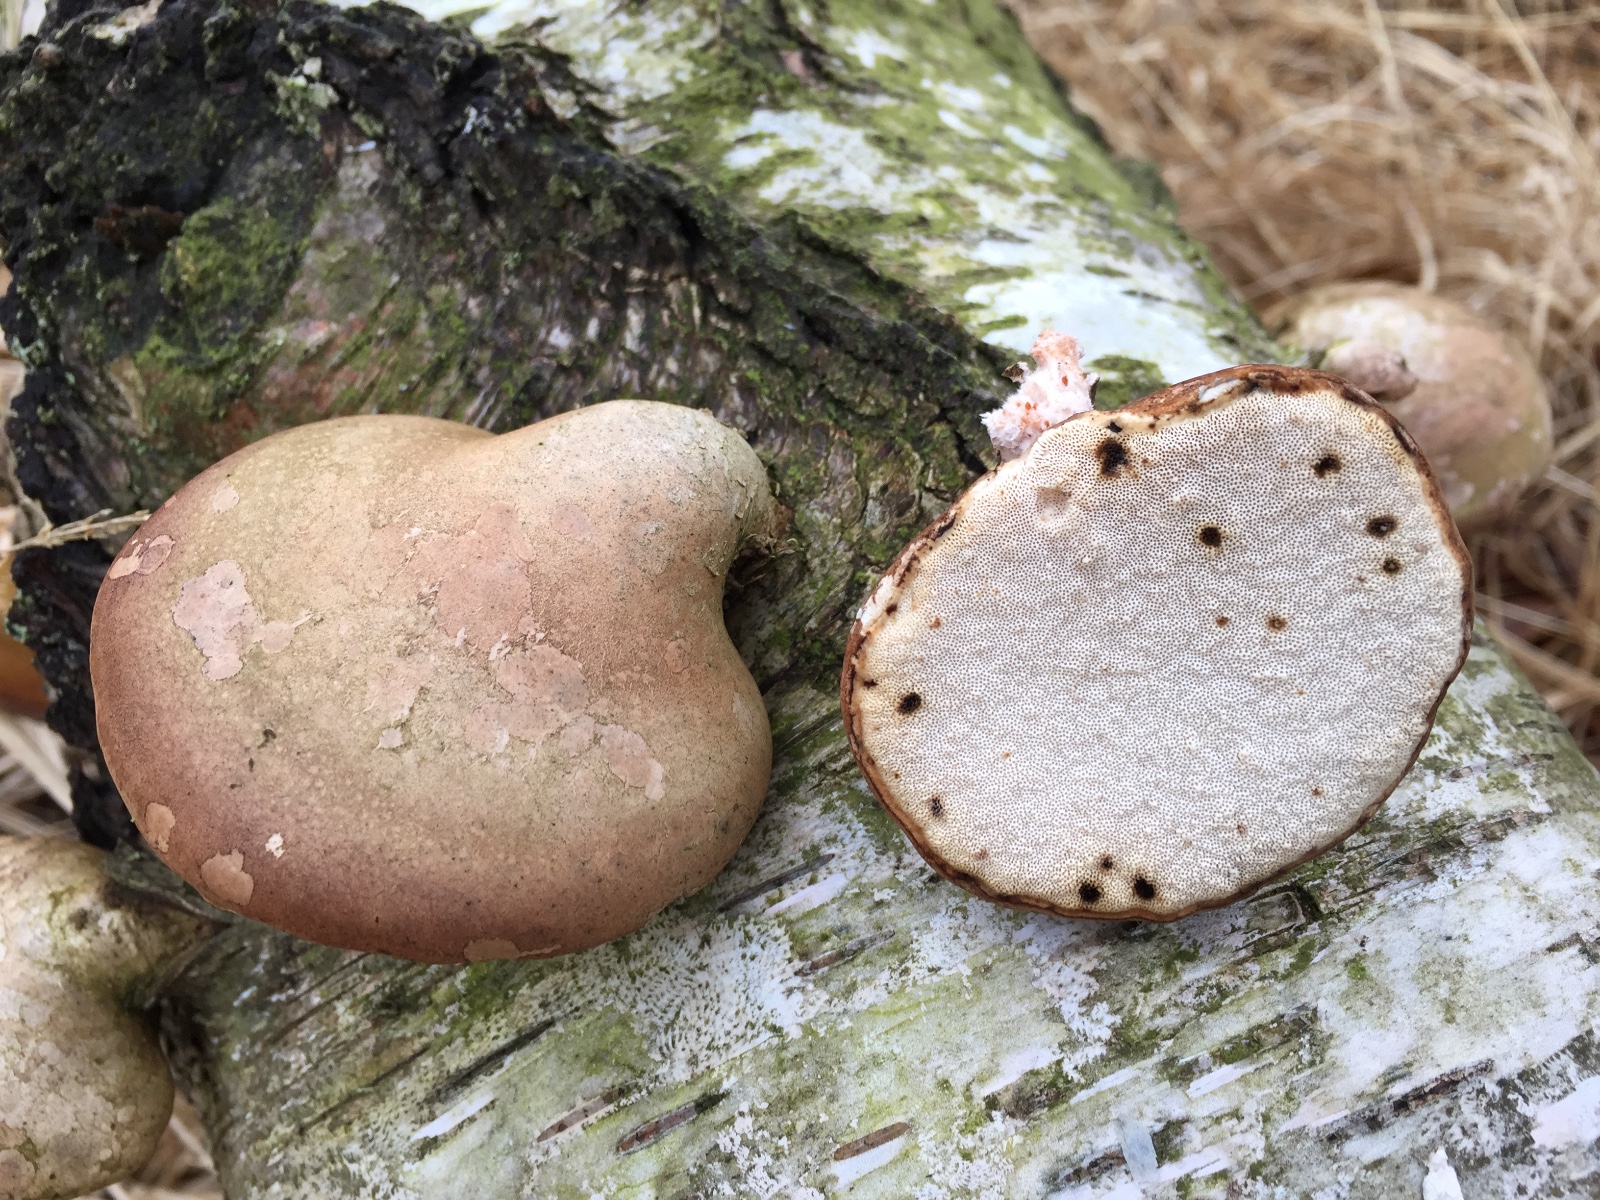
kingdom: Fungi
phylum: Basidiomycota
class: Agaricomycetes
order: Polyporales
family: Fomitopsidaceae
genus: Fomitopsis
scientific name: Fomitopsis betulina
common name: birkeporesvamp
